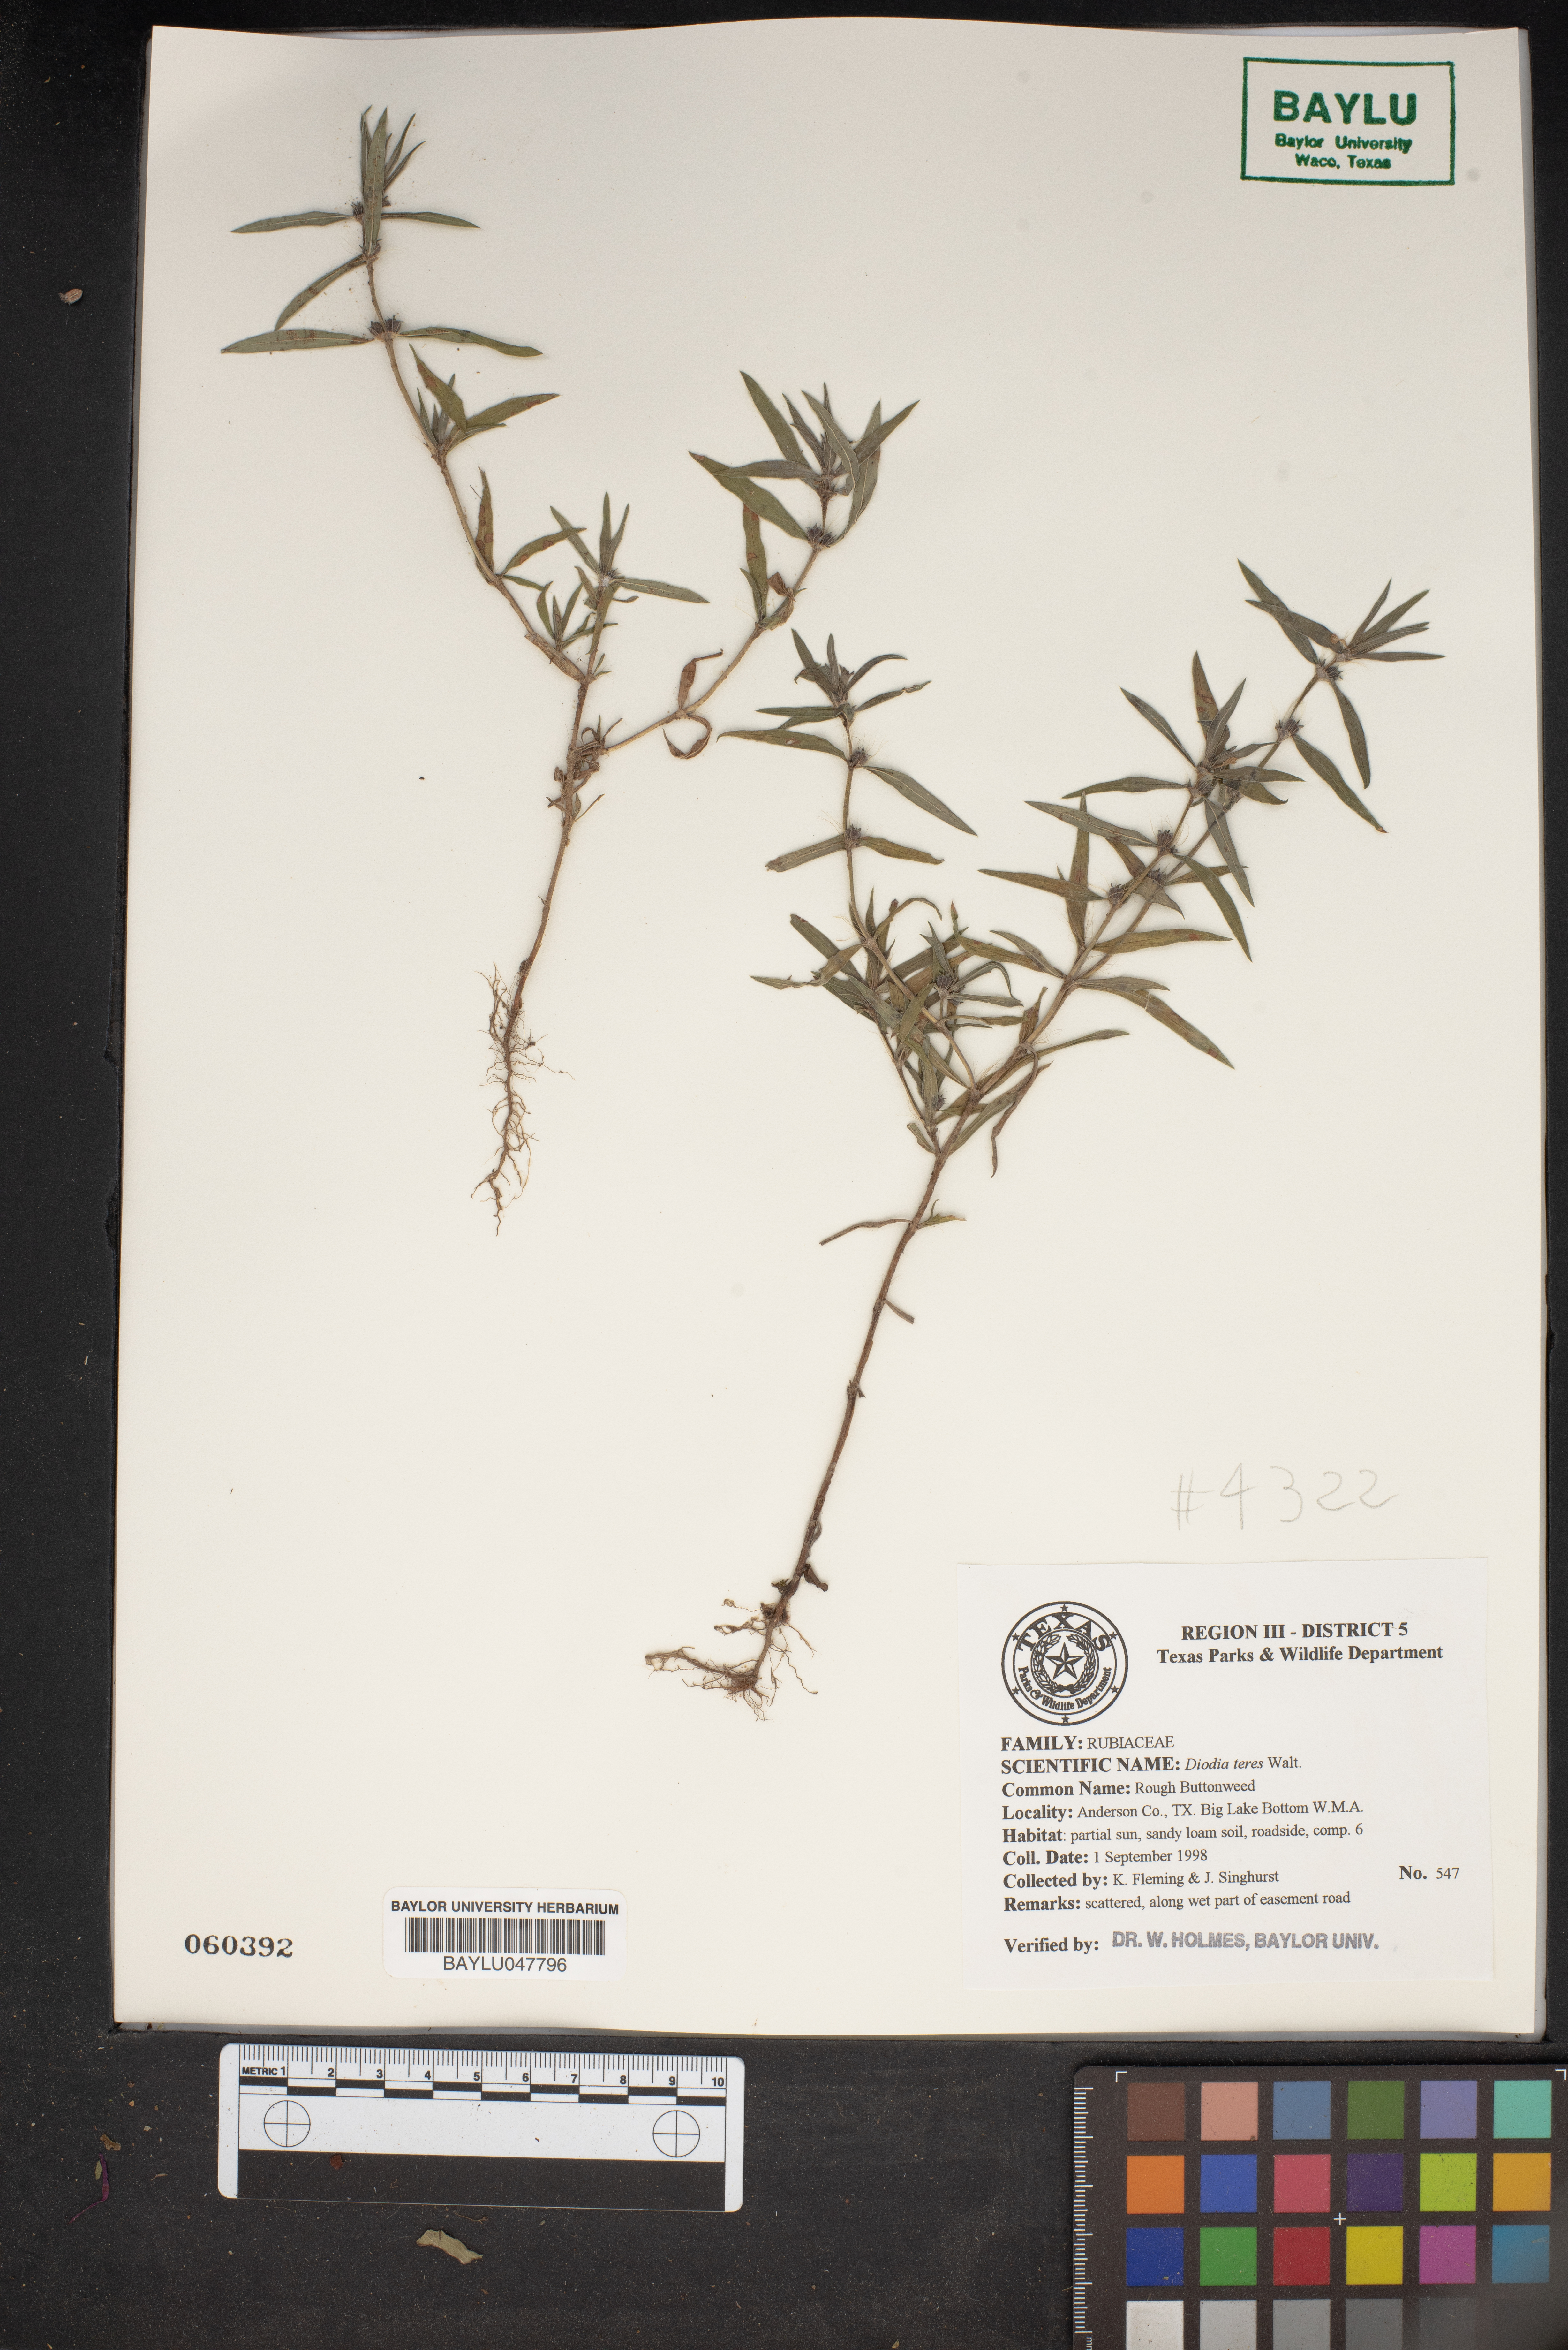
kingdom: Plantae
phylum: Tracheophyta
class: Magnoliopsida
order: Gentianales
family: Rubiaceae
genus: Hexasepalum
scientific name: Hexasepalum teres
